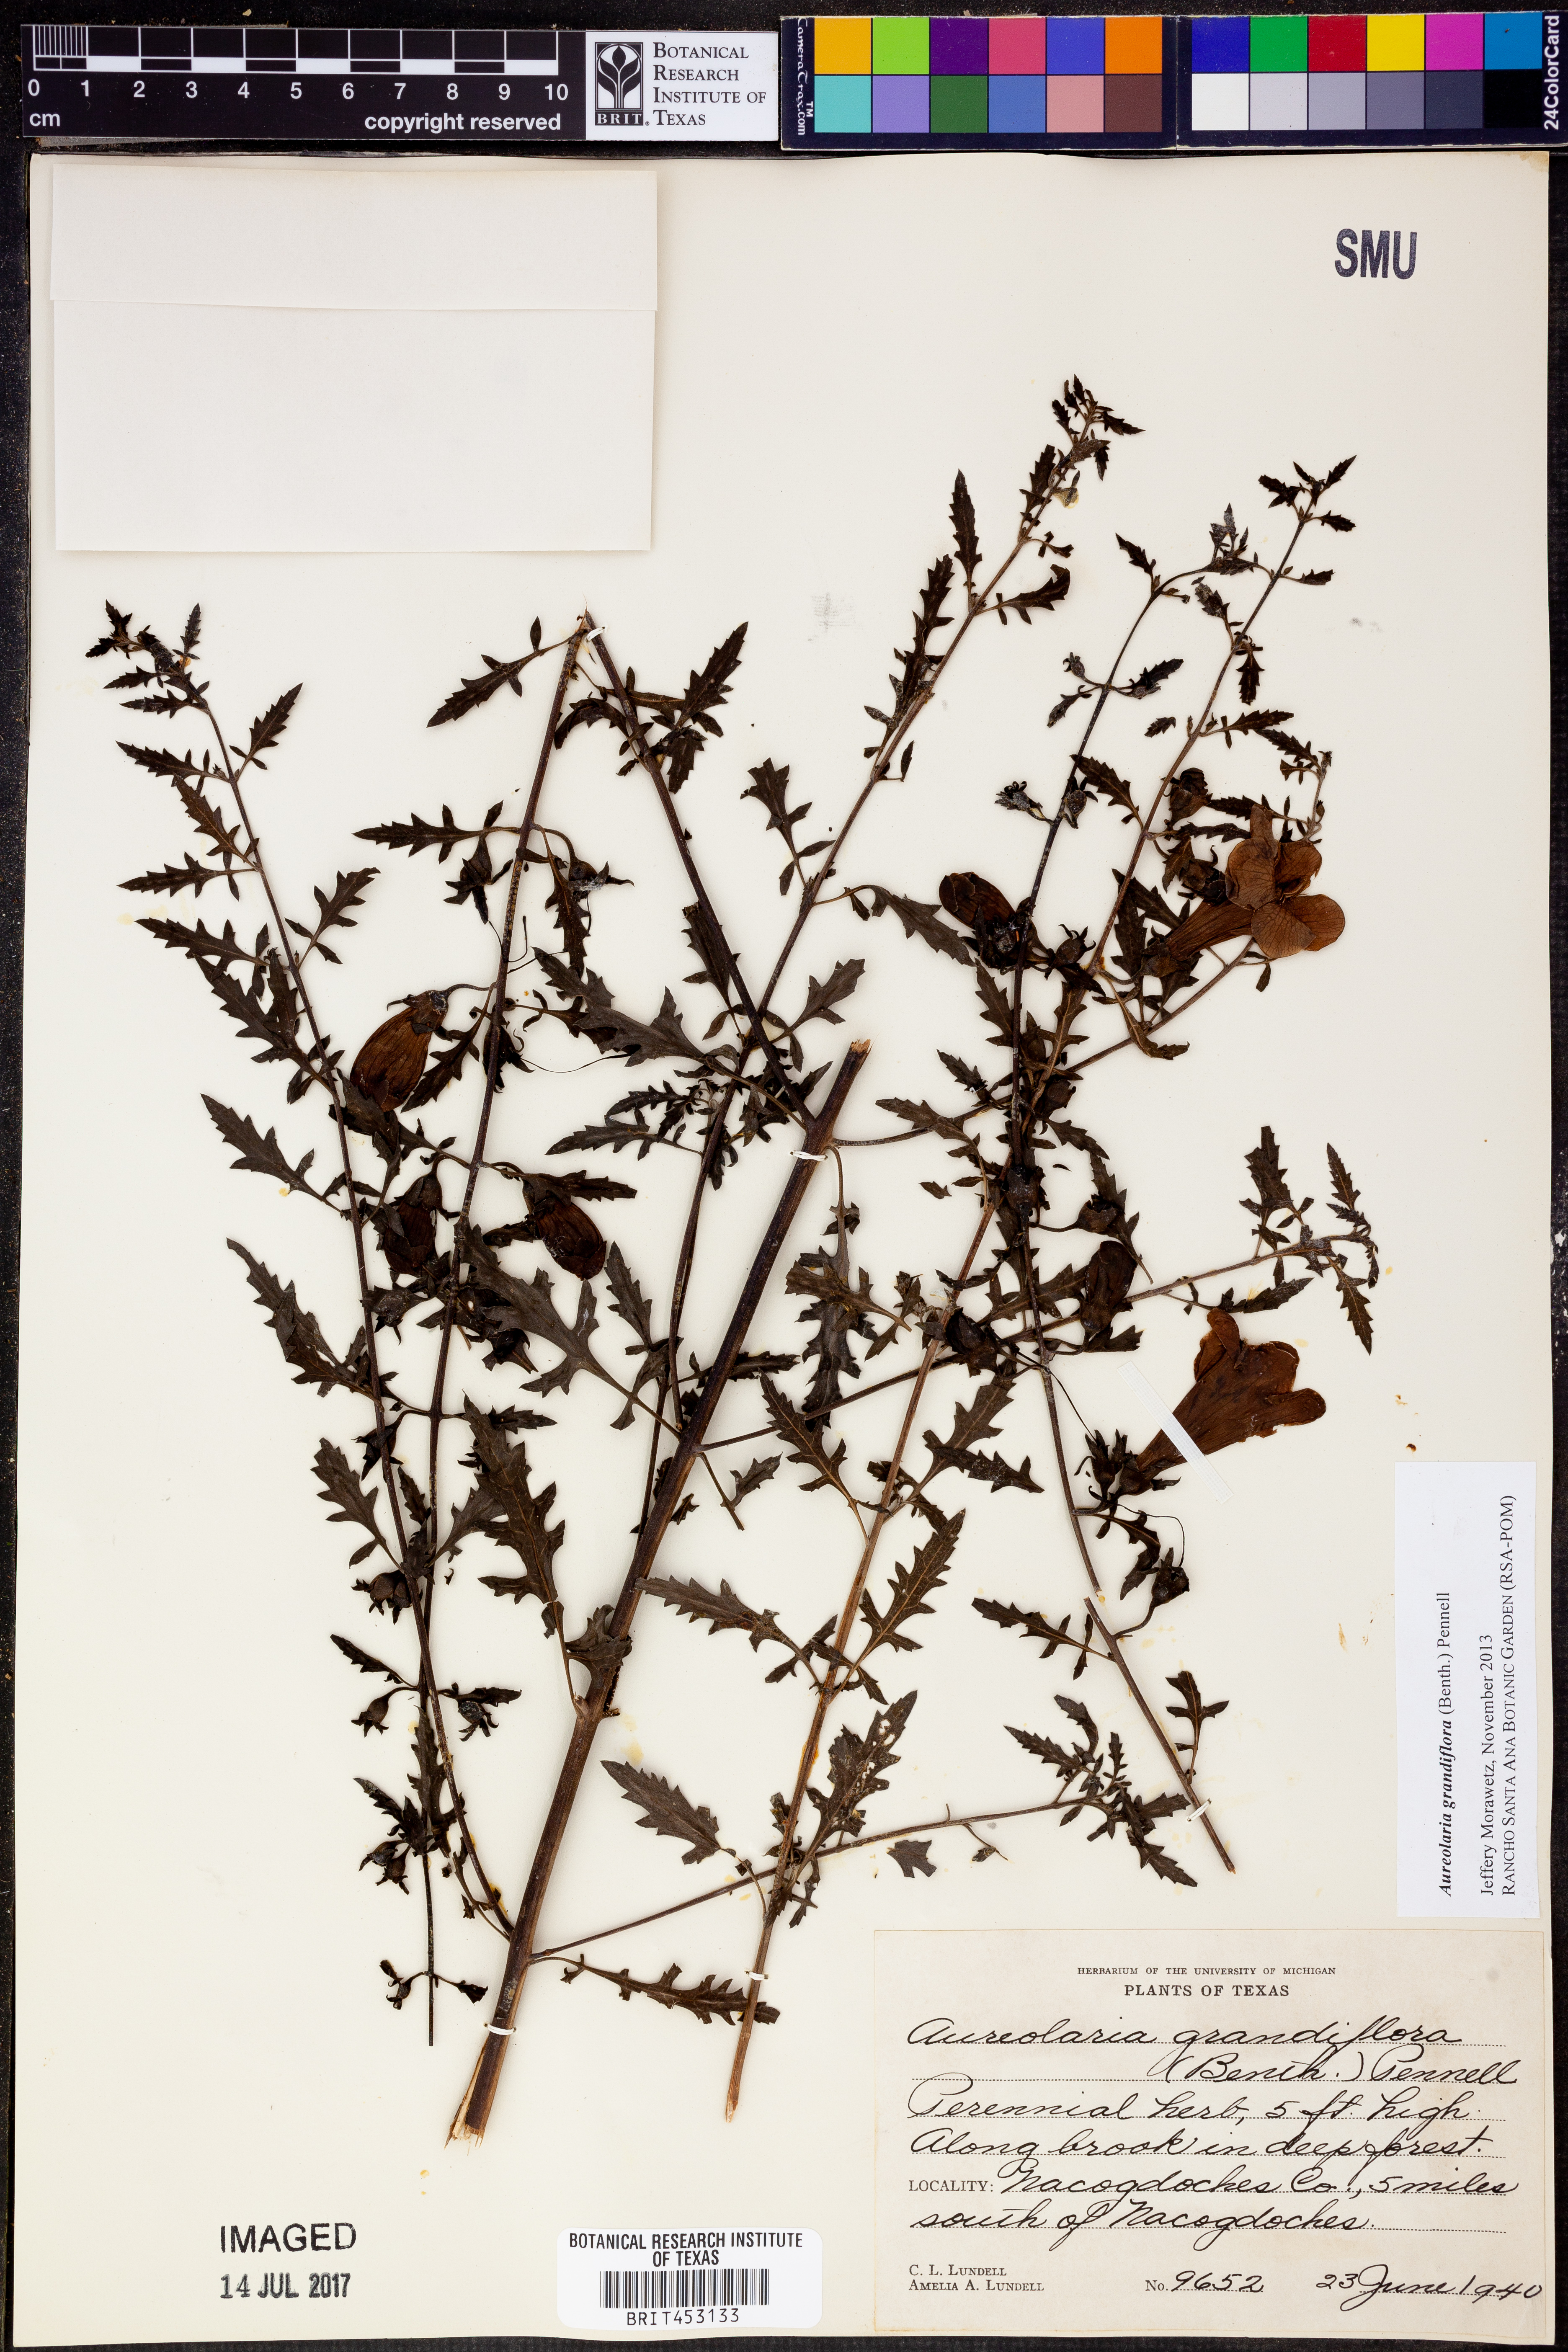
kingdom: Plantae
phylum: Tracheophyta
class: Magnoliopsida
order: Lamiales
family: Orobanchaceae
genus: Aureolaria
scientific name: Aureolaria grandiflora
